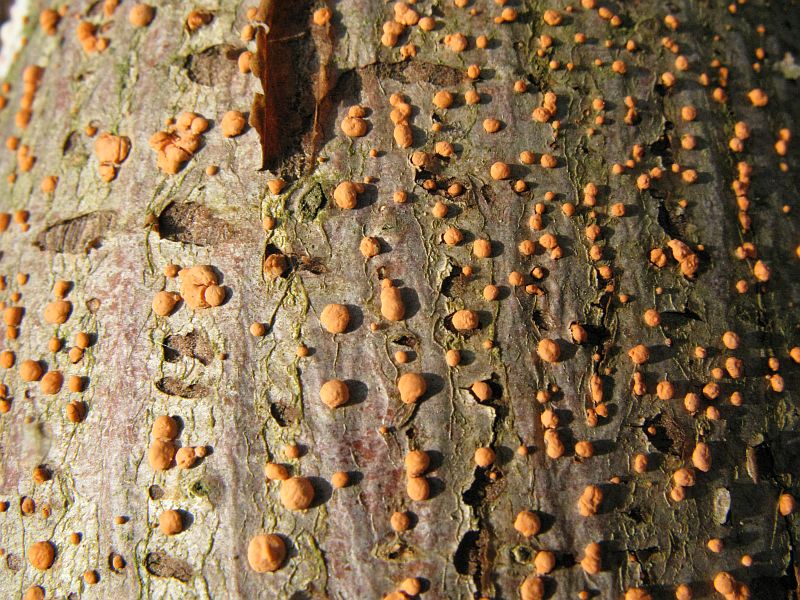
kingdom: Fungi
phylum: Ascomycota
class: Sordariomycetes
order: Hypocreales
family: Nectriaceae
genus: Nectria
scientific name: Nectria cinnabarina
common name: almindelig cinnobersvamp
